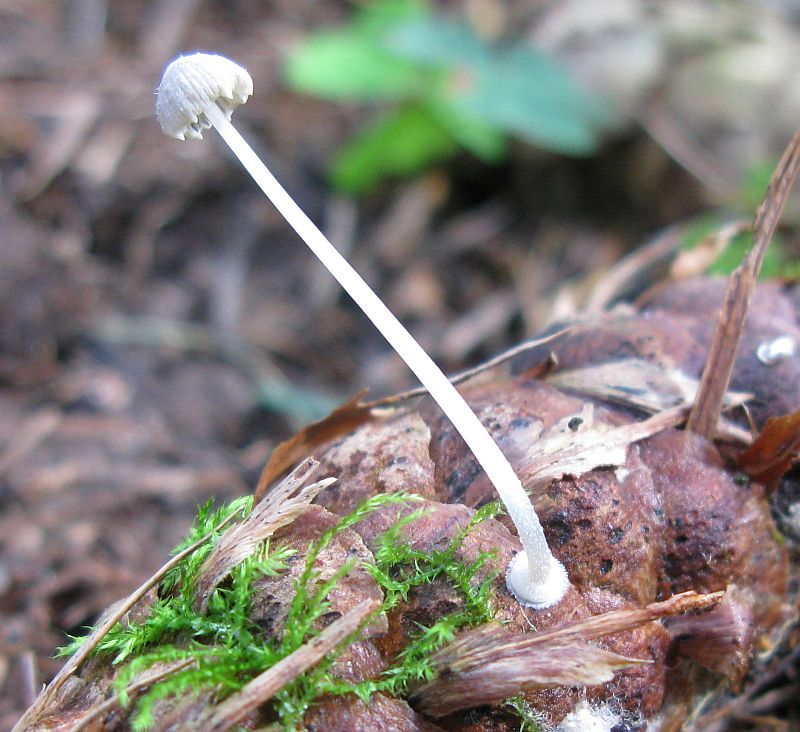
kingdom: Fungi
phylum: Basidiomycota
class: Agaricomycetes
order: Agaricales
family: Mycenaceae
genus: Mycena
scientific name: Mycena stylobates
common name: fureskivet huesvamp
